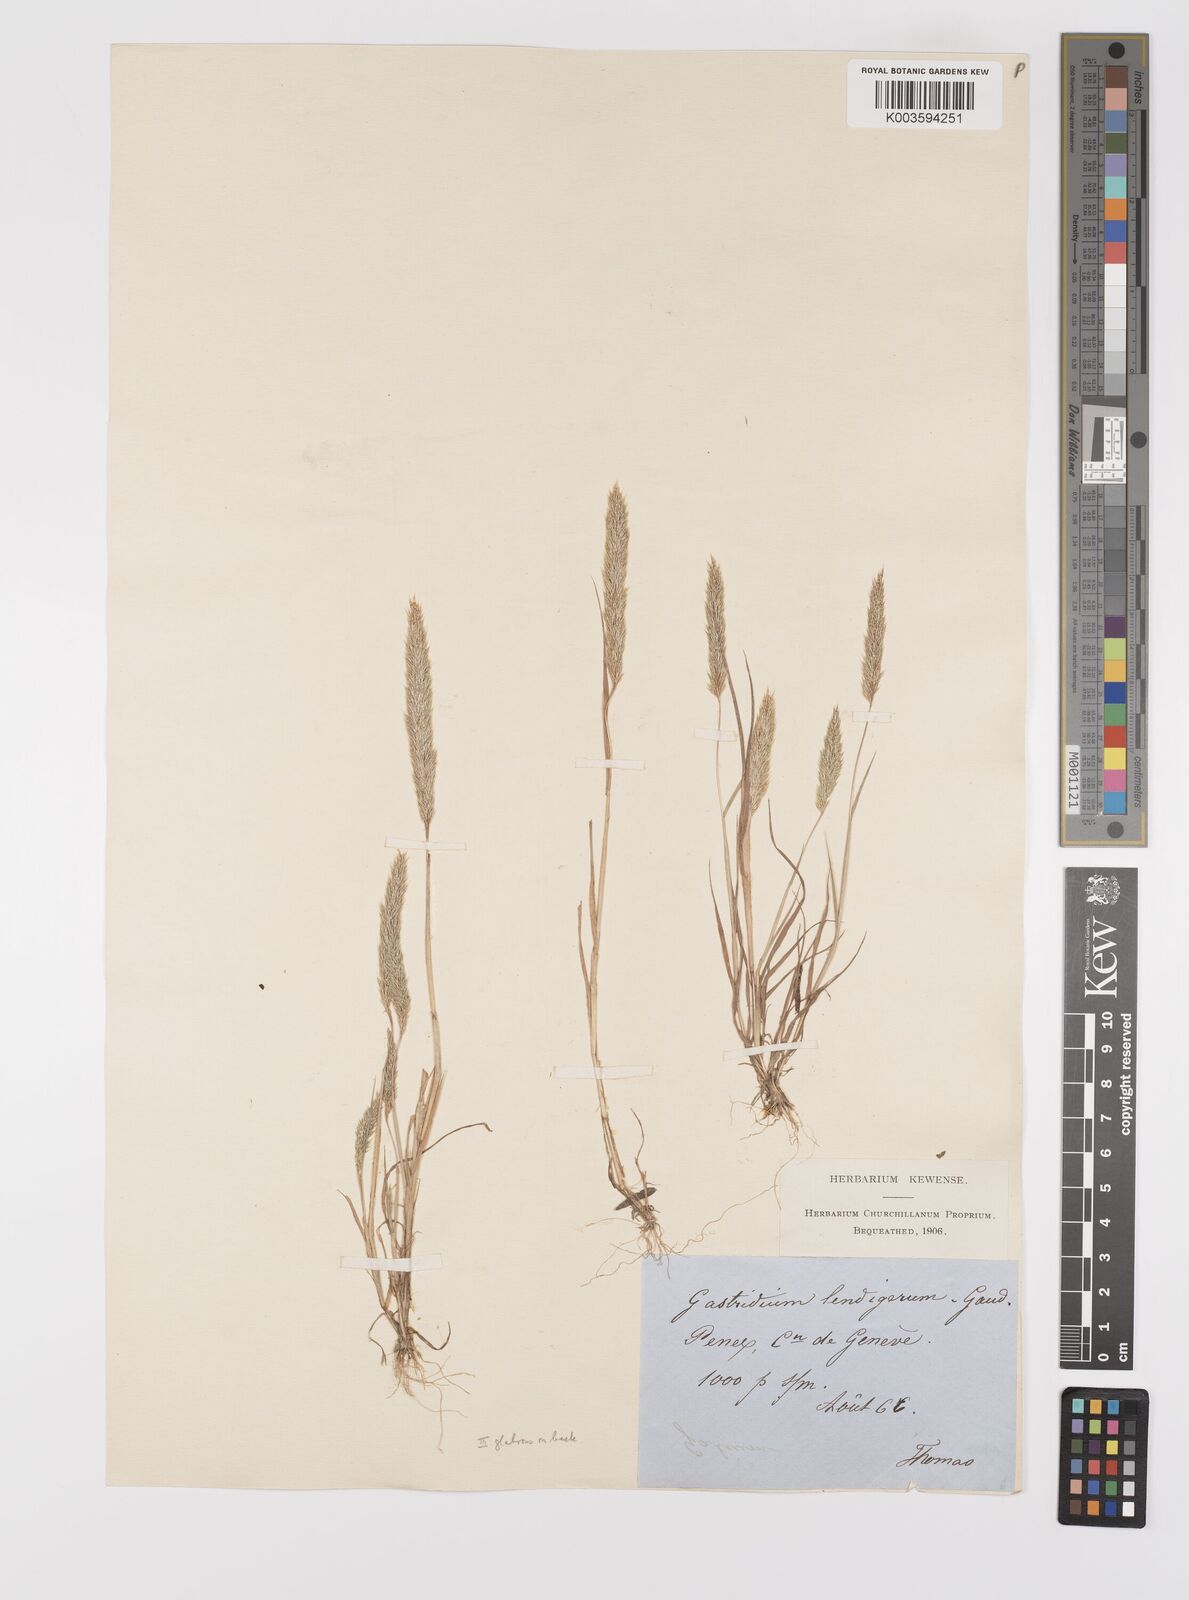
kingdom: Plantae
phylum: Tracheophyta
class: Liliopsida
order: Poales
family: Poaceae
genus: Gastridium
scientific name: Gastridium ventricosum
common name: Nit-grass
